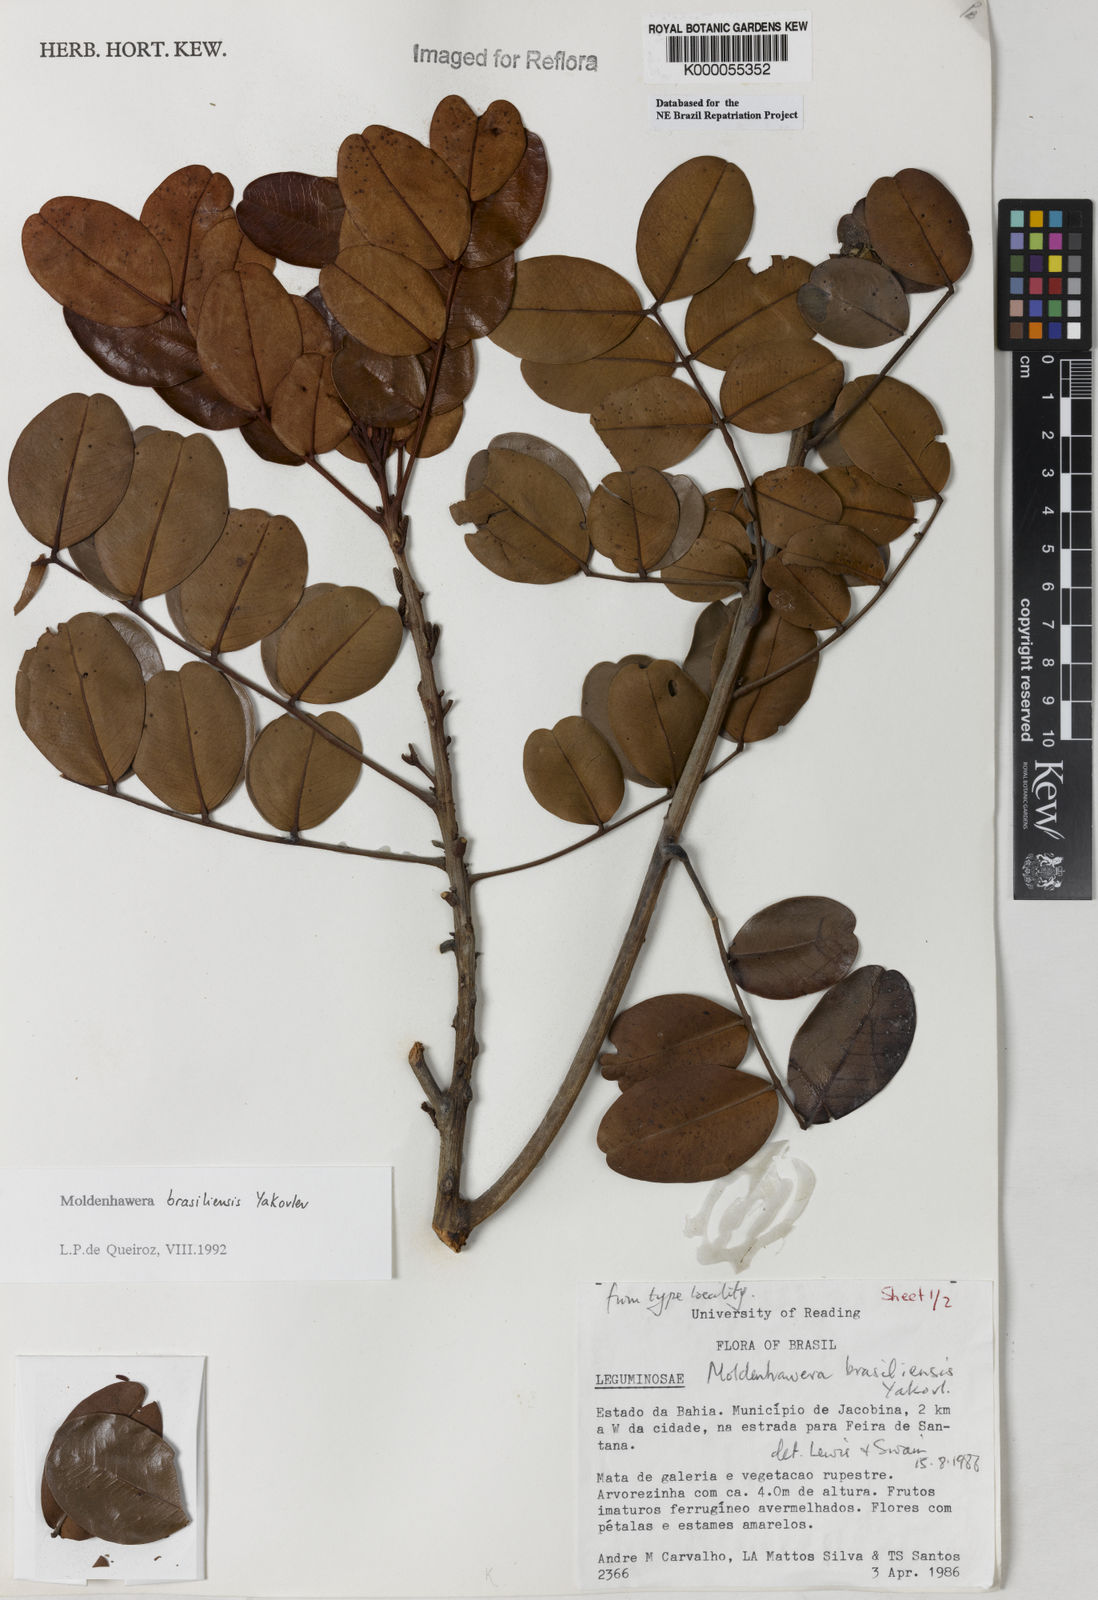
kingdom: Plantae
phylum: Tracheophyta
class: Magnoliopsida
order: Fabales
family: Fabaceae
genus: Moldenhawera
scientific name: Moldenhawera brasiliensis
